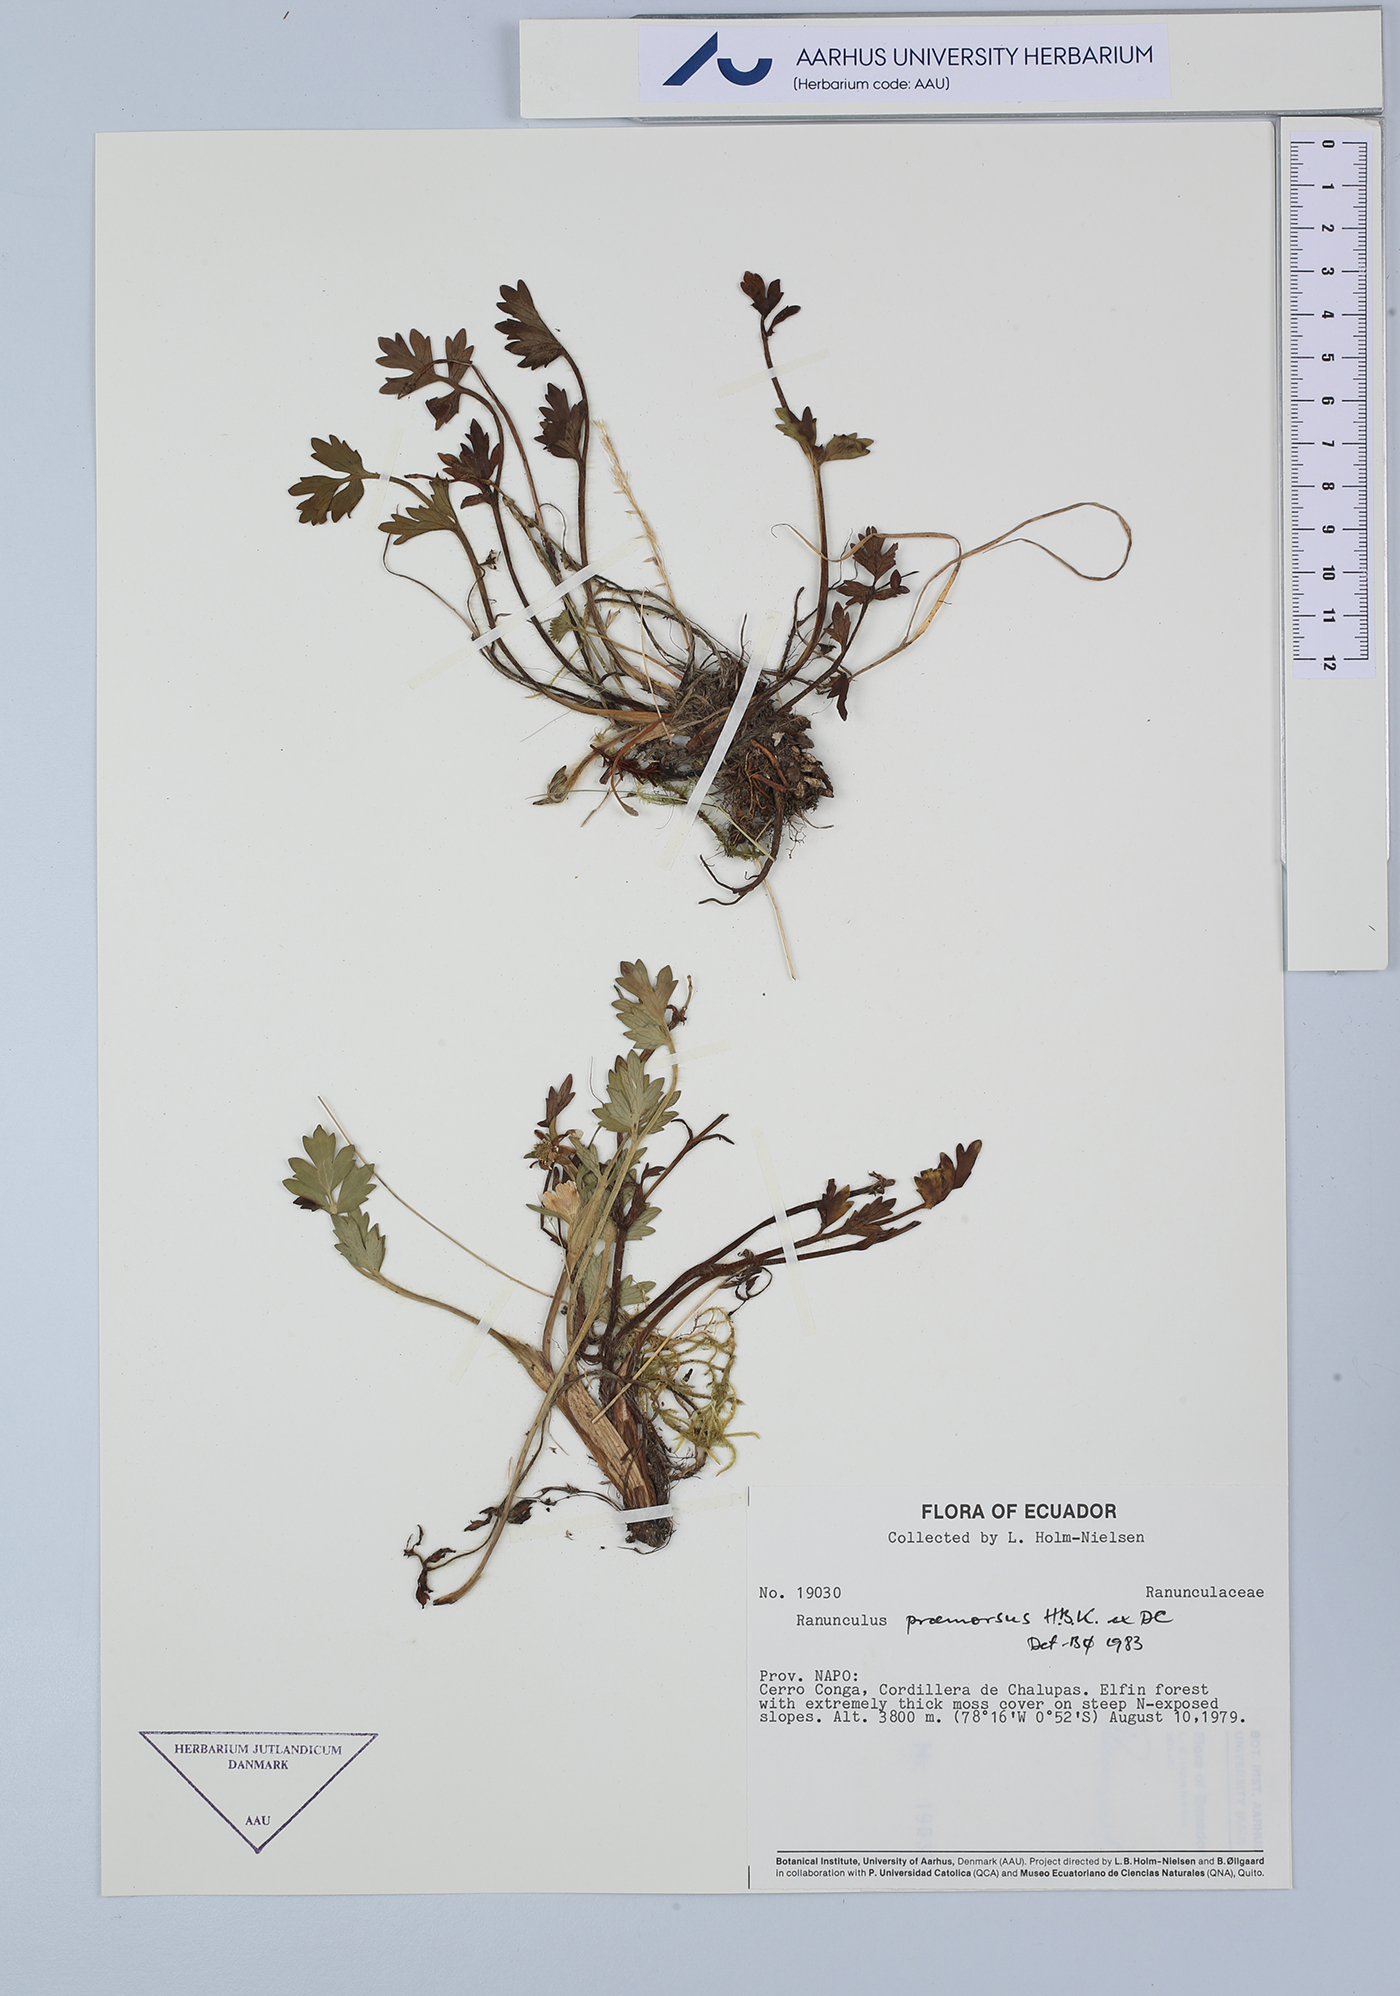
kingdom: Plantae
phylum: Tracheophyta
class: Magnoliopsida
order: Ranunculales
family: Ranunculaceae
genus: Ranunculus
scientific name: Ranunculus praemorsus
